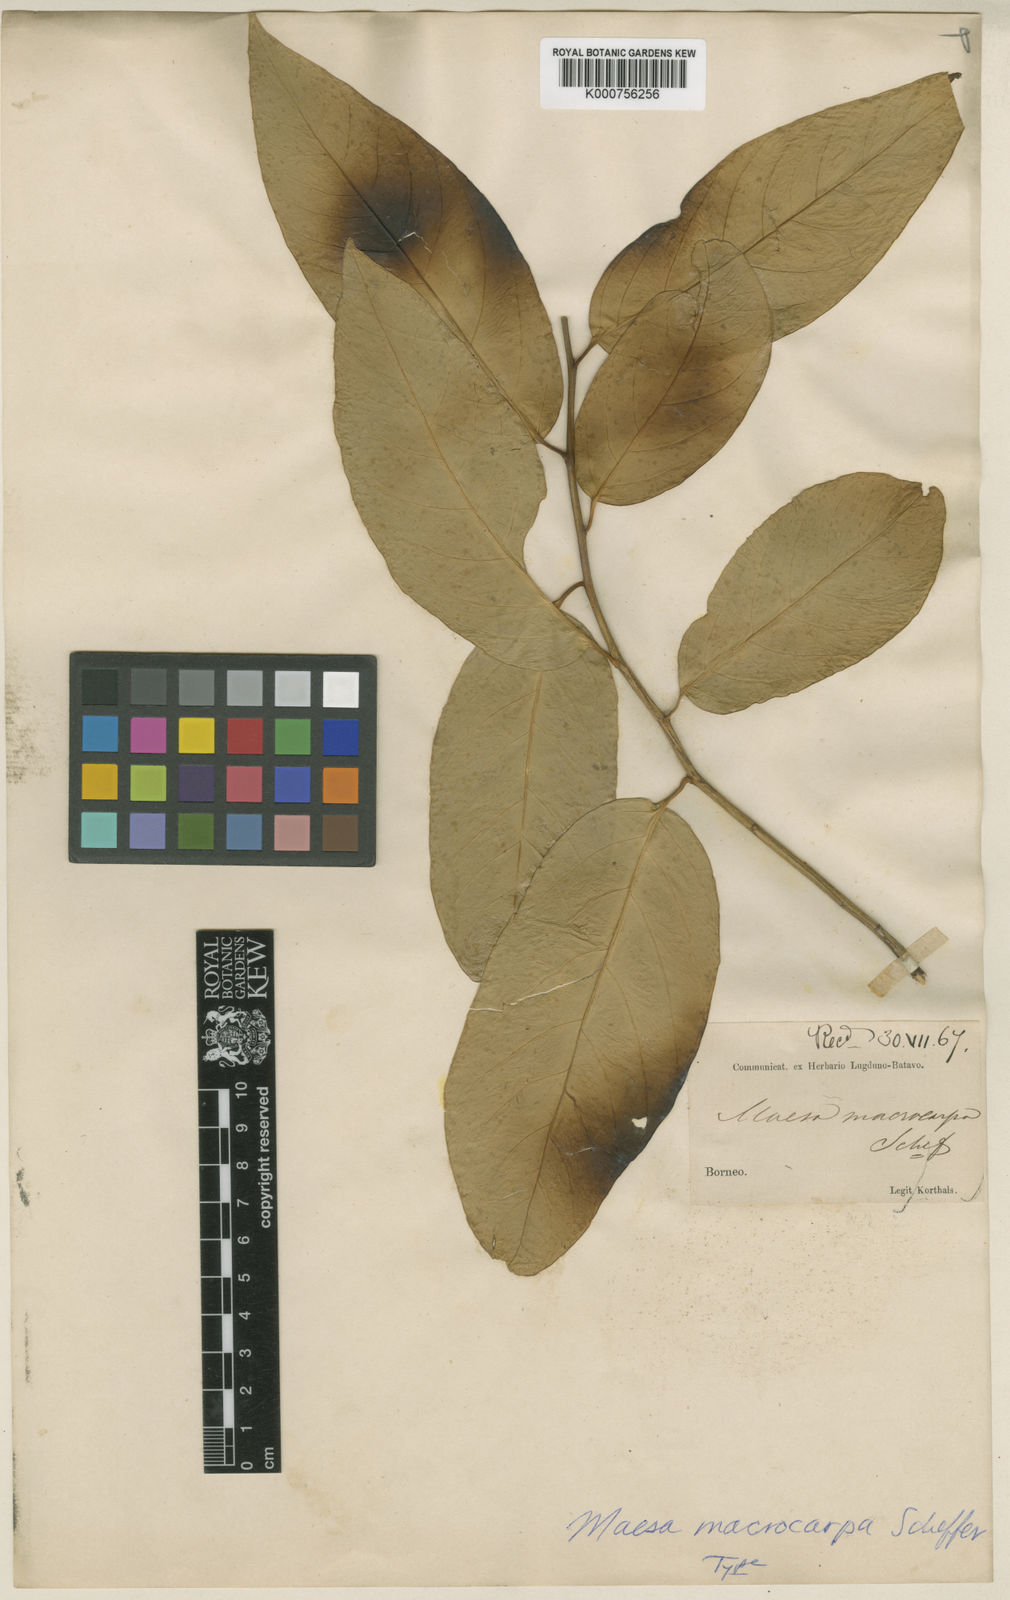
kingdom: Plantae
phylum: Tracheophyta
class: Magnoliopsida
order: Ericales
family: Primulaceae
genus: Maesa
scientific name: Maesa macrocarpa
